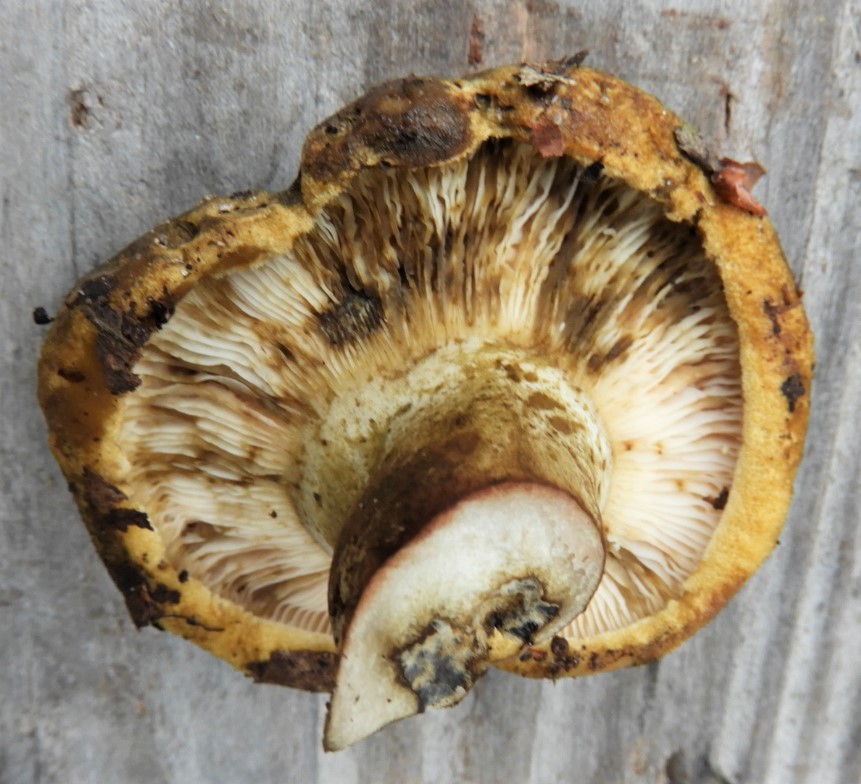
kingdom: Fungi
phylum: Basidiomycota
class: Agaricomycetes
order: Russulales
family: Russulaceae
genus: Lactarius
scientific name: Lactarius necator
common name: manddraber-mælkehat
